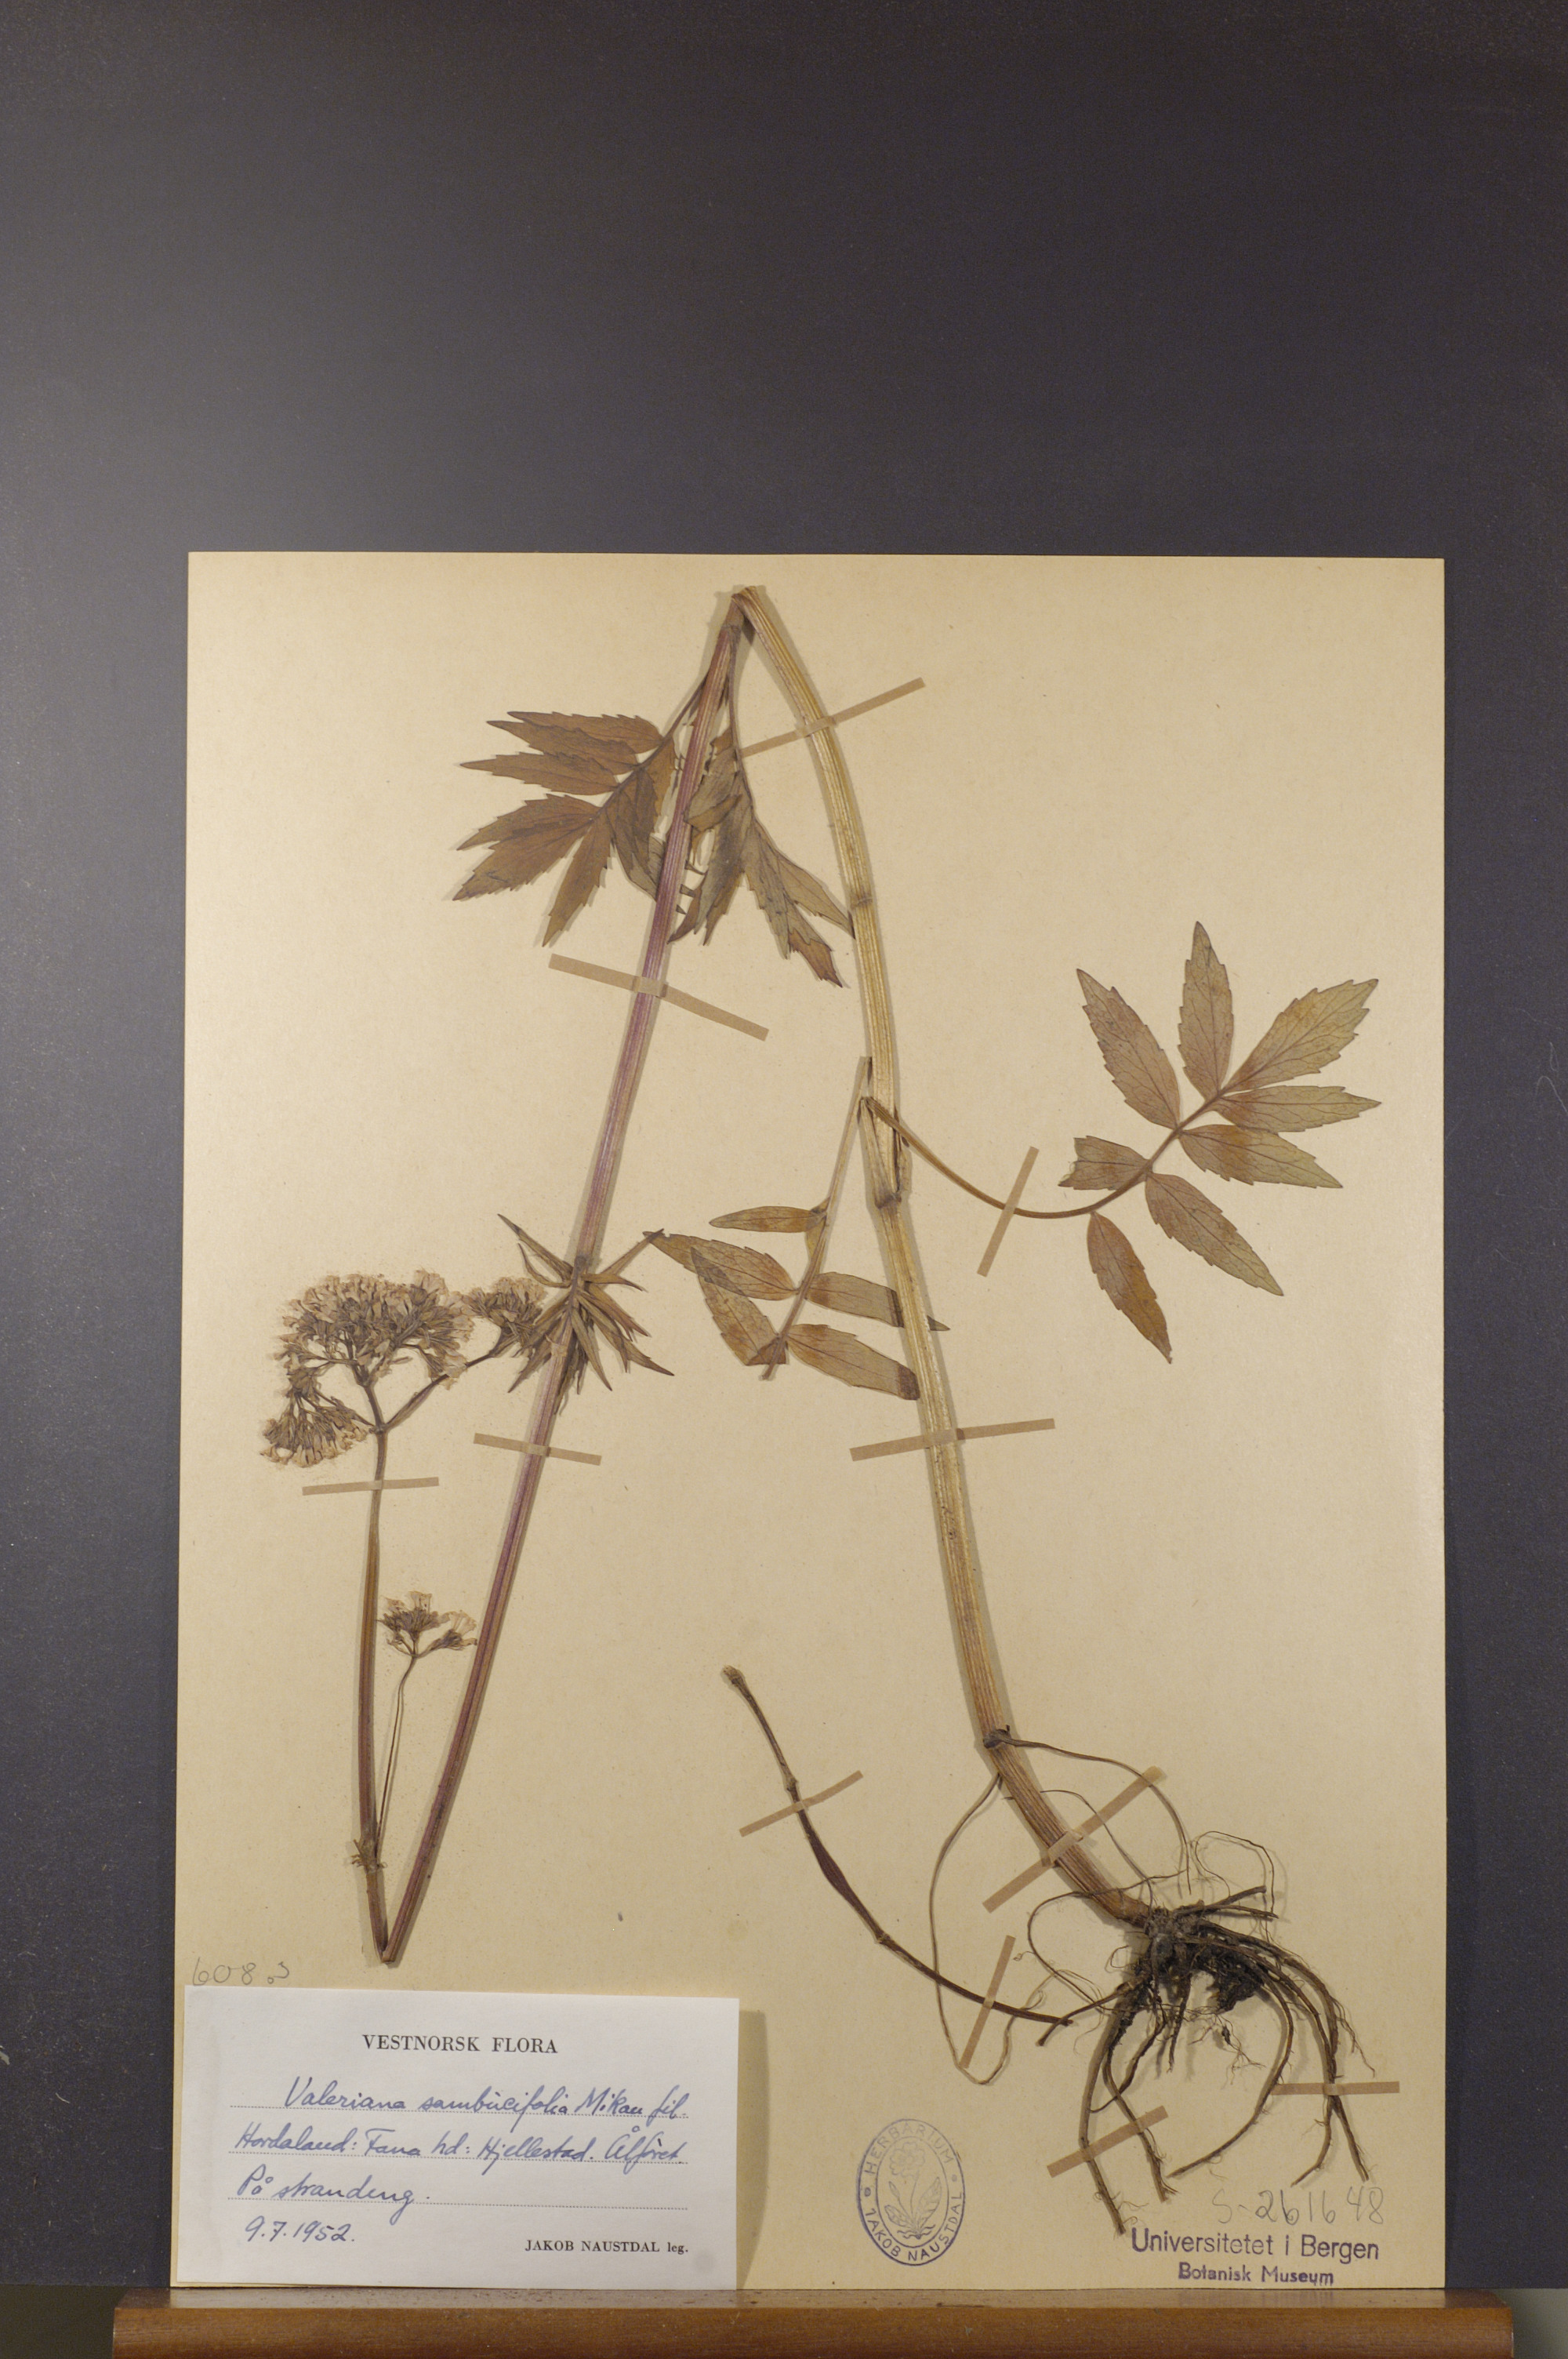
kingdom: Plantae
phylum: Tracheophyta
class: Magnoliopsida
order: Dipsacales
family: Caprifoliaceae
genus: Valeriana
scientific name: Valeriana excelsa
